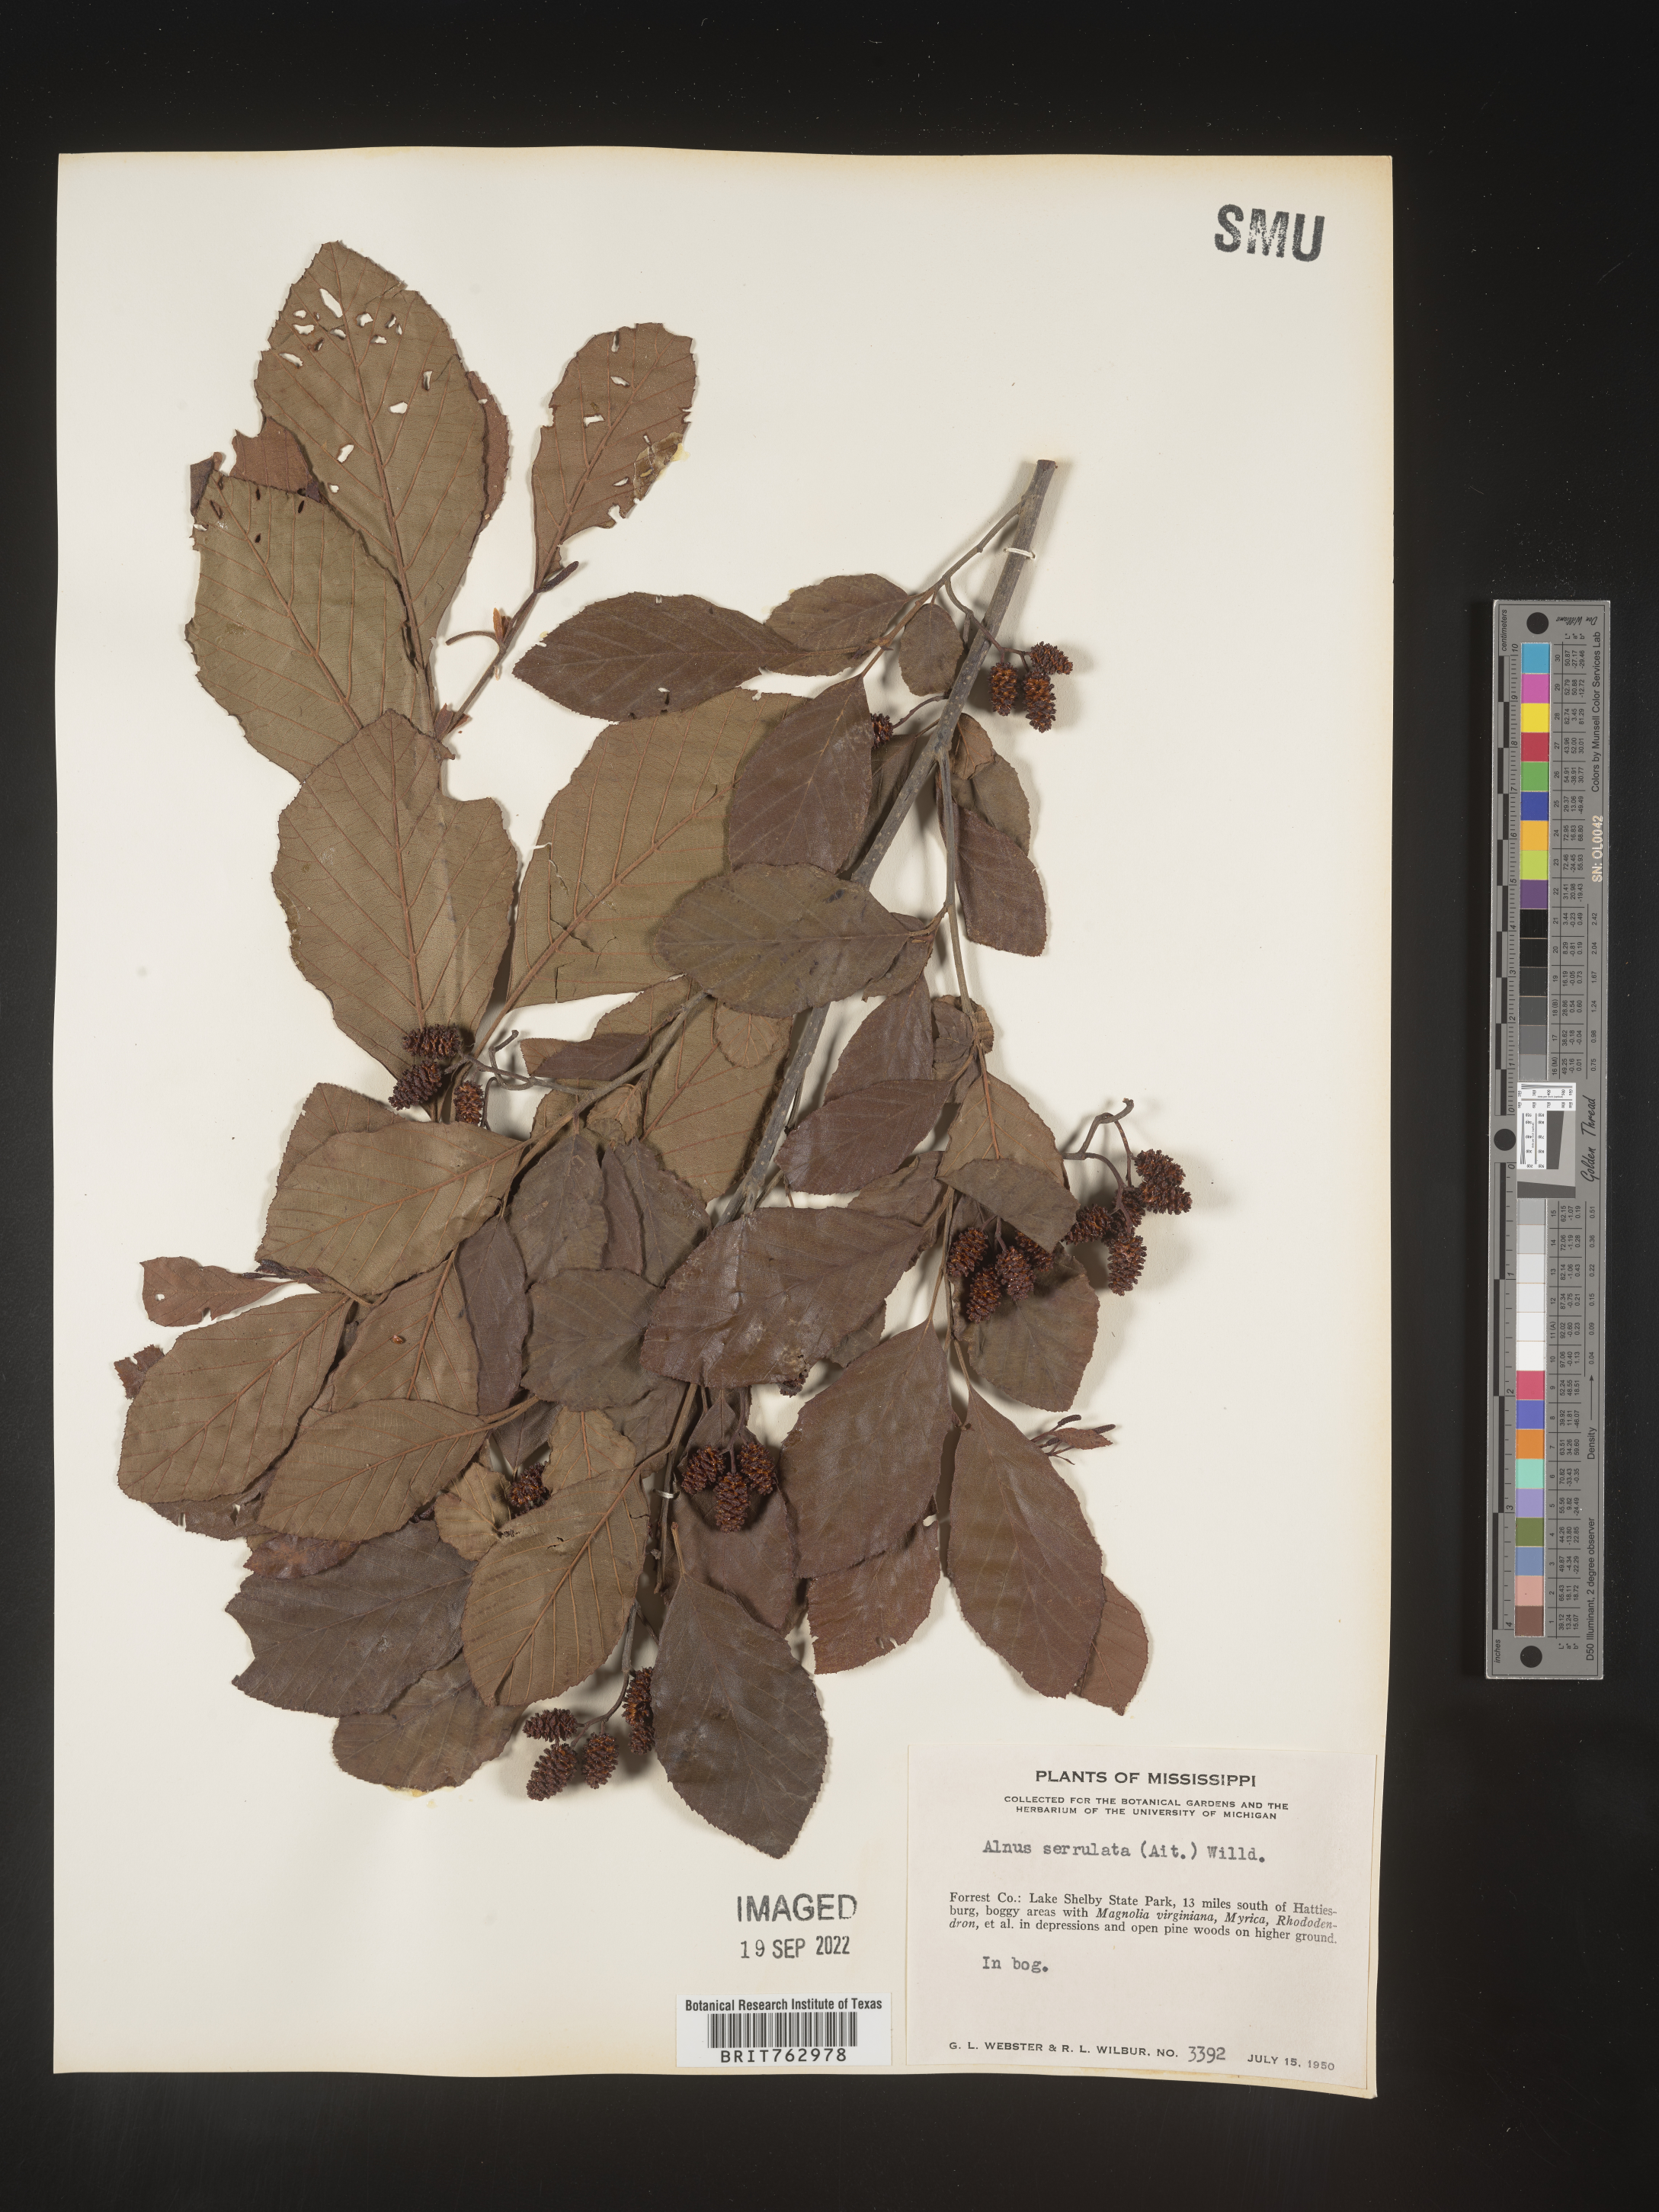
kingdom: Plantae
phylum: Tracheophyta
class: Magnoliopsida
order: Fagales
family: Betulaceae
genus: Alnus
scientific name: Alnus serrulata
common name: Hazel alder
